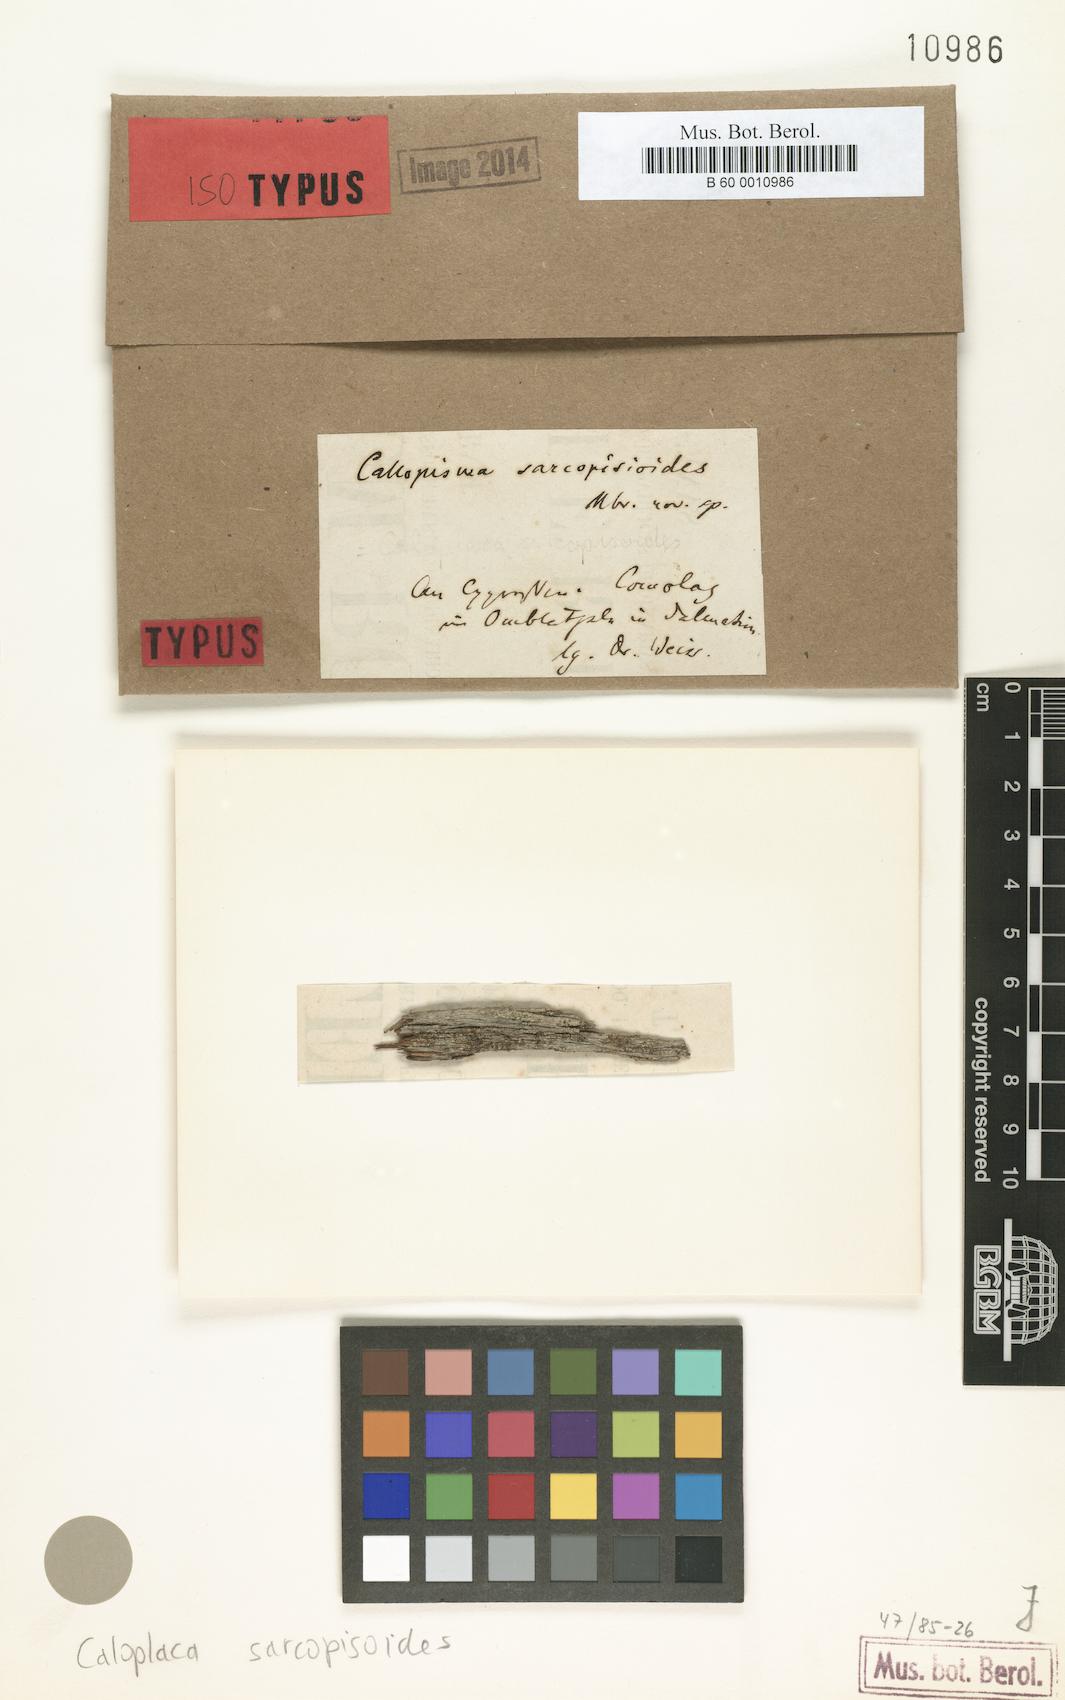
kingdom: Fungi
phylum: Ascomycota
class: Lecanoromycetes
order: Teloschistales
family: Teloschistaceae
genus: Caloplaca
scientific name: Caloplaca obscurella
